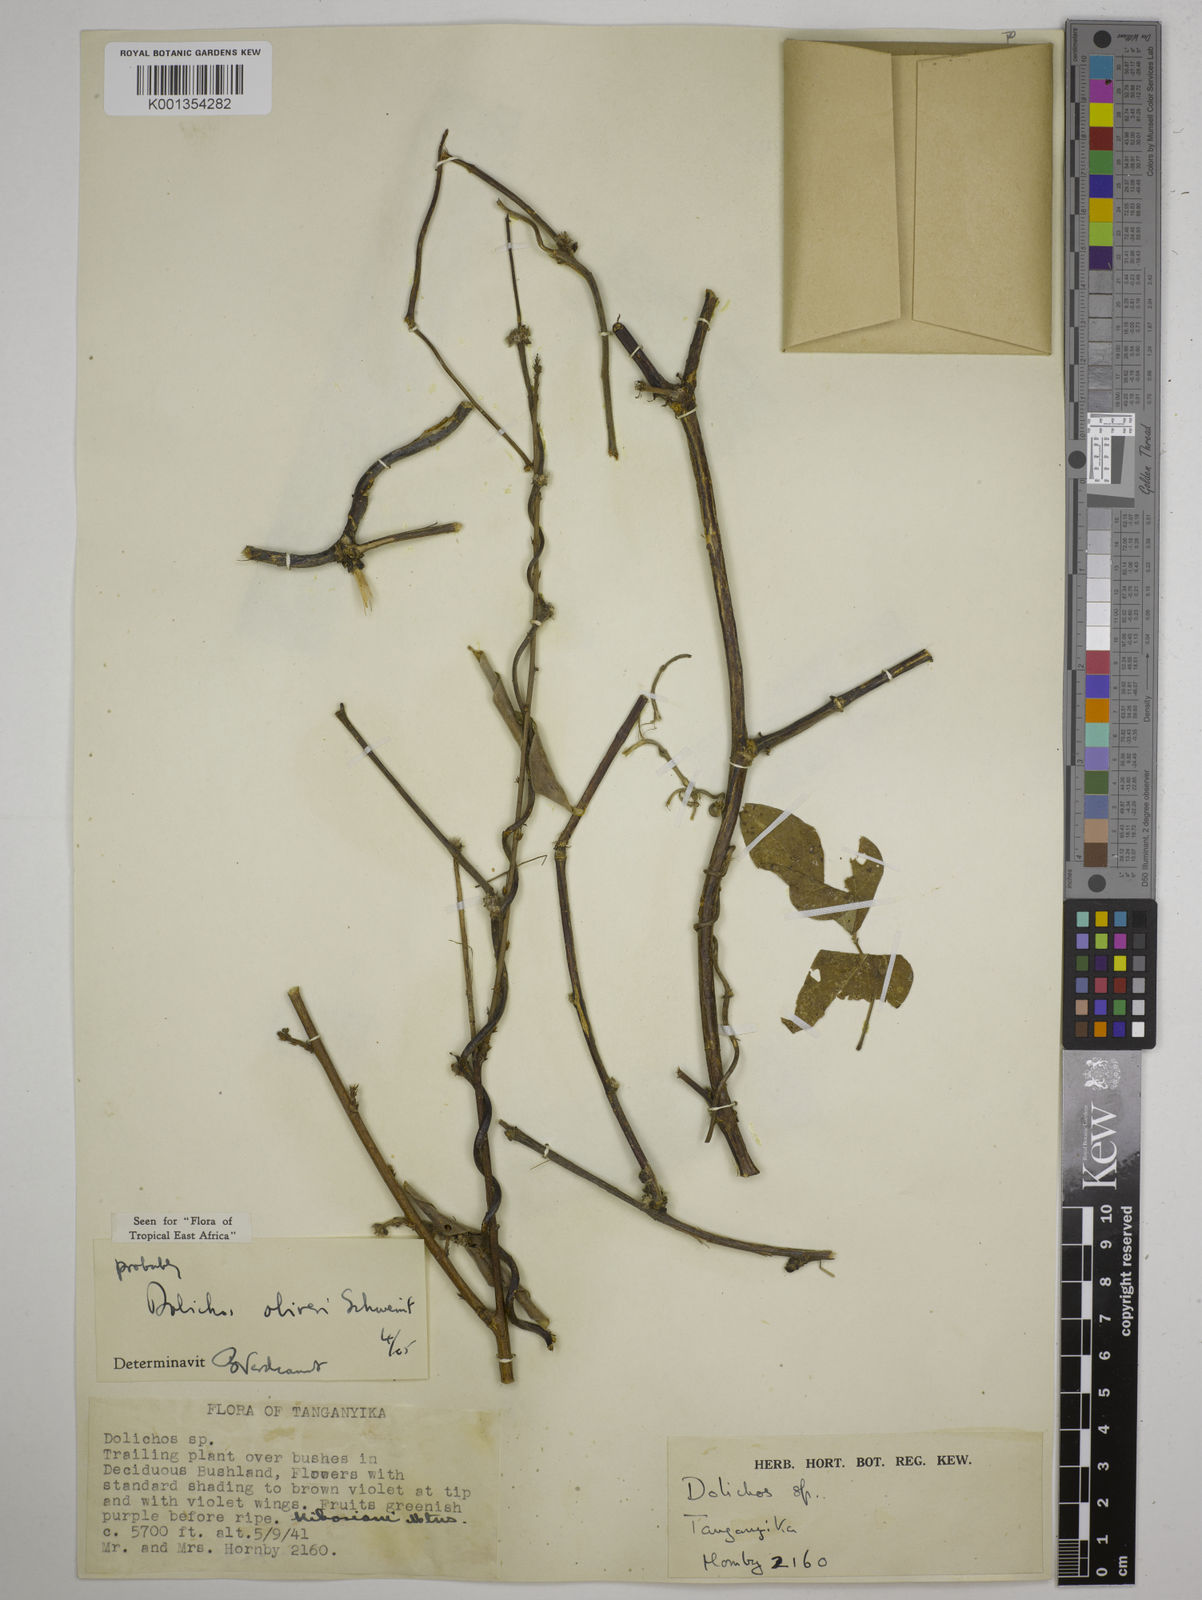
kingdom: Plantae
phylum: Tracheophyta
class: Magnoliopsida
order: Fabales
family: Fabaceae
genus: Dolichos
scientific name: Dolichos oliveri
